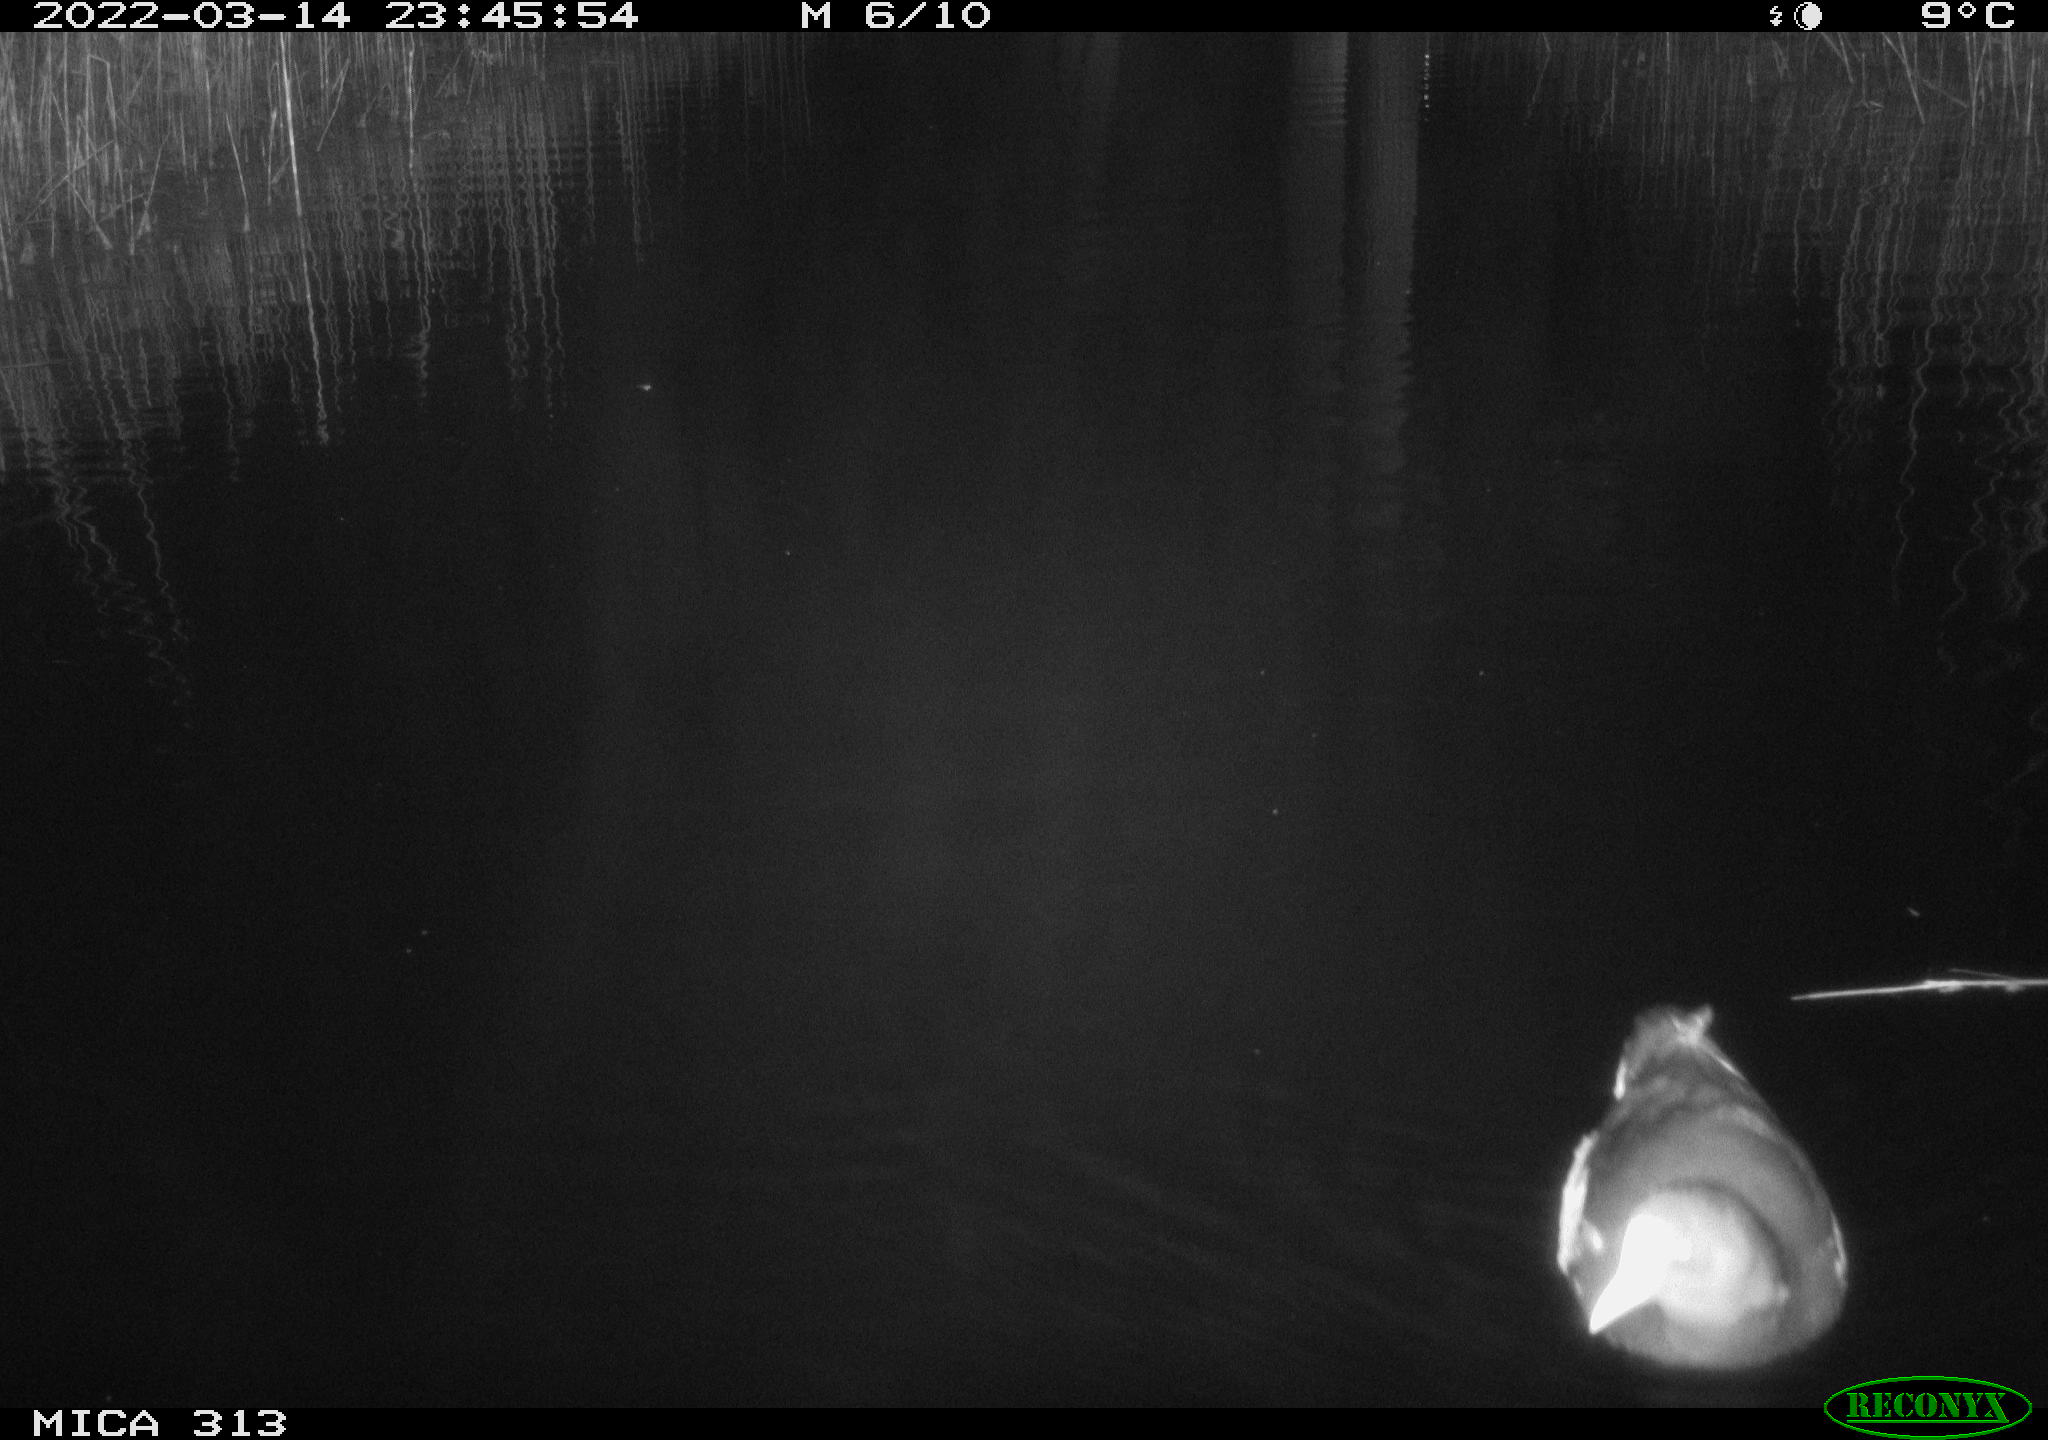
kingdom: Animalia
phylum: Chordata
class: Aves
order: Gruiformes
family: Rallidae
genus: Gallinula
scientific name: Gallinula chloropus
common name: Common moorhen
